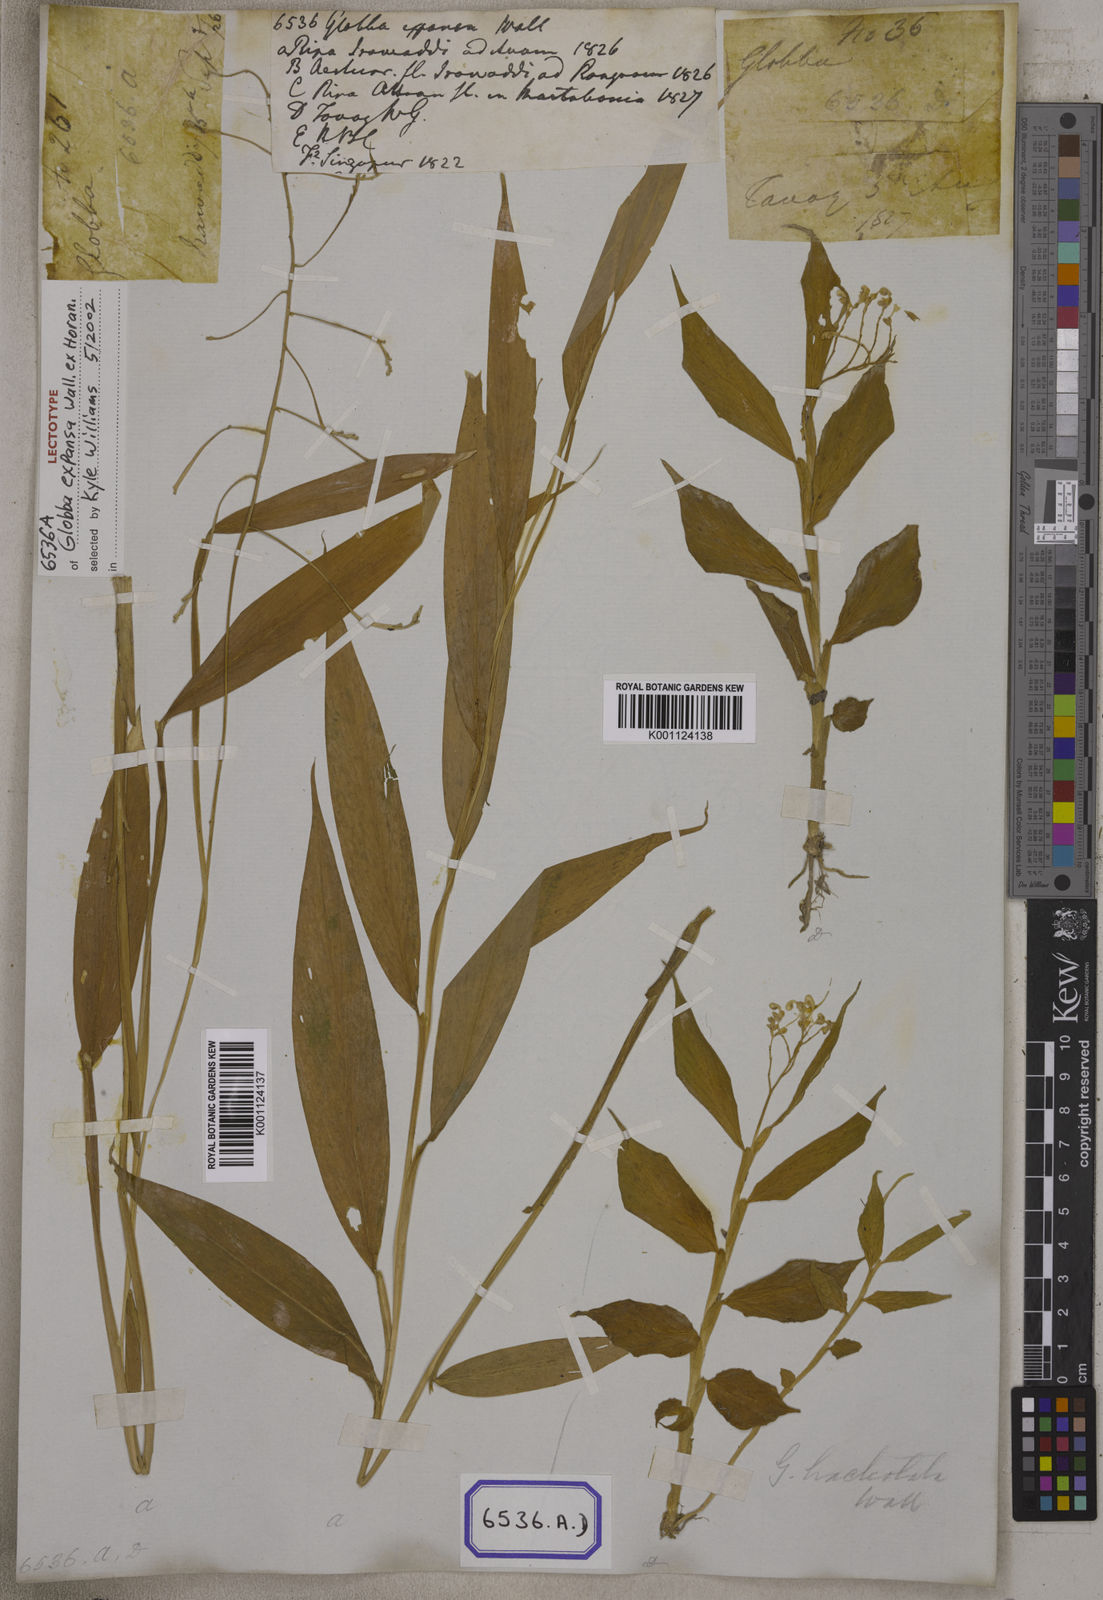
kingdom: Plantae
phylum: Tracheophyta
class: Liliopsida
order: Zingiberales
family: Zingiberaceae
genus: Globba
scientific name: Globba
